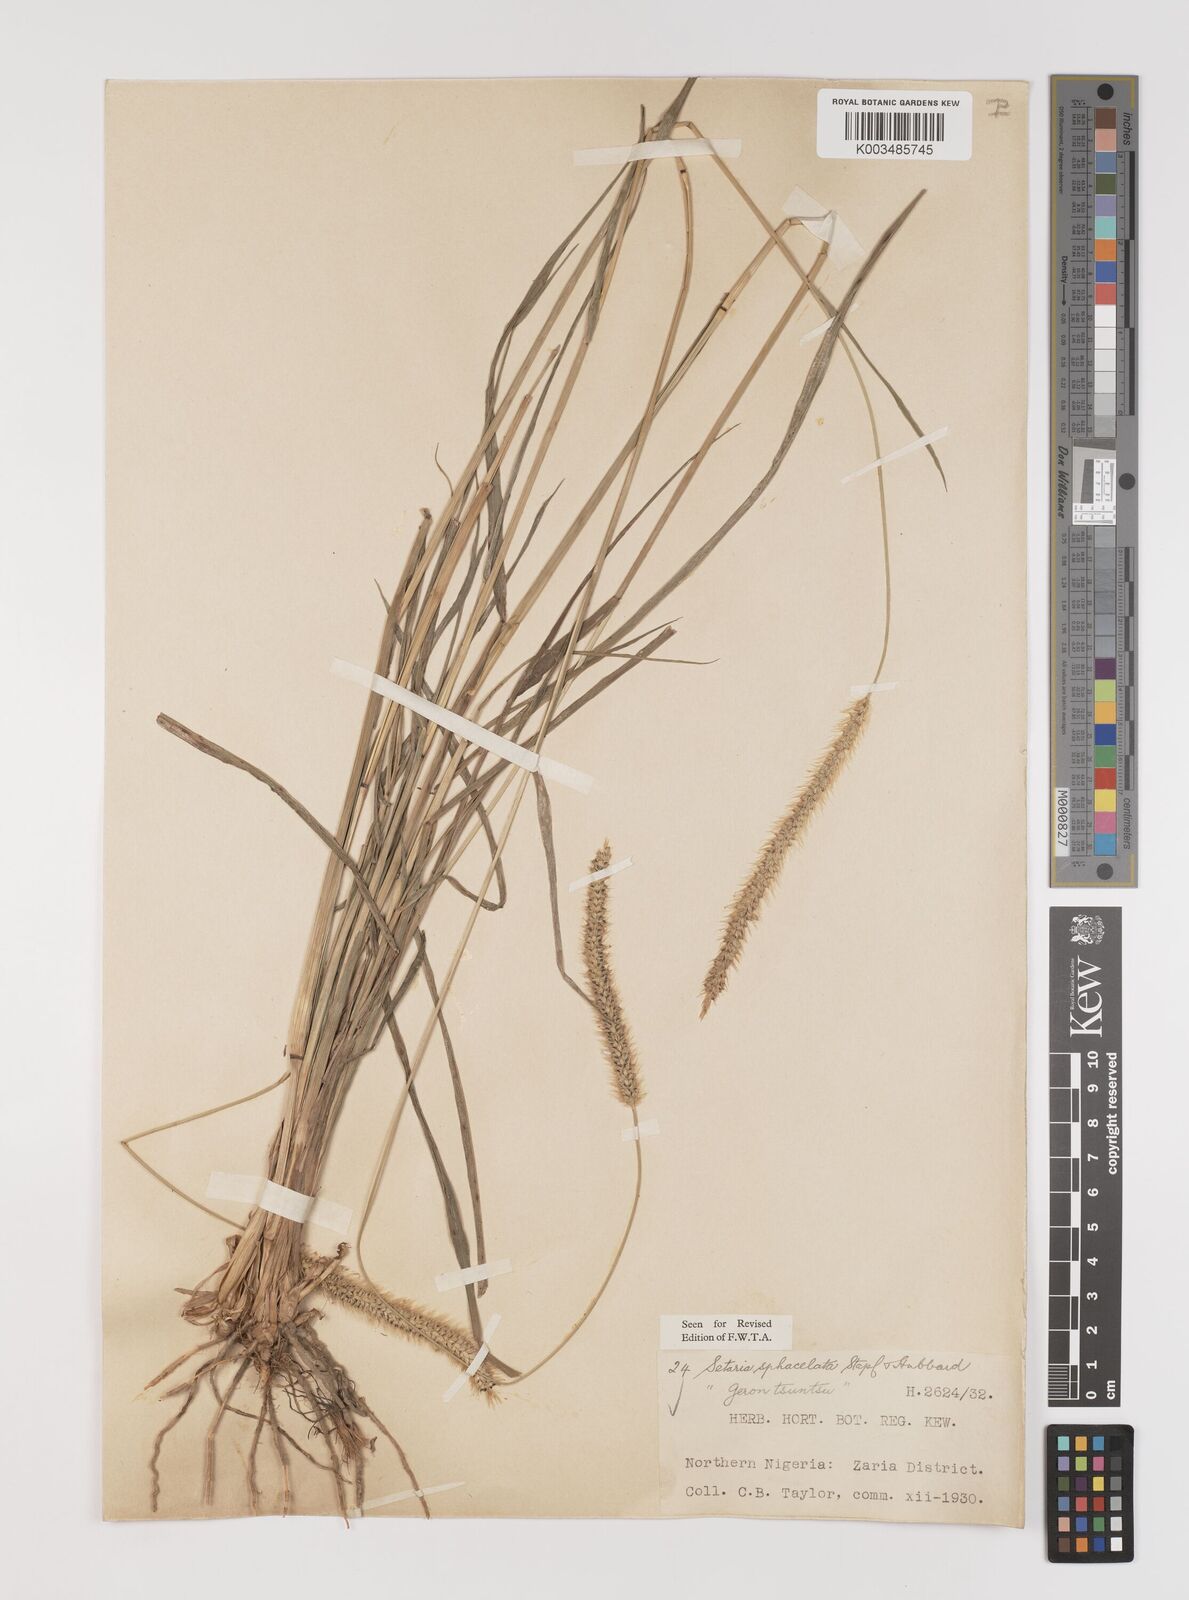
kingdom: Plantae
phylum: Tracheophyta
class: Liliopsida
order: Poales
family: Poaceae
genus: Setaria
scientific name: Setaria sphacelata
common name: African bristlegrass
